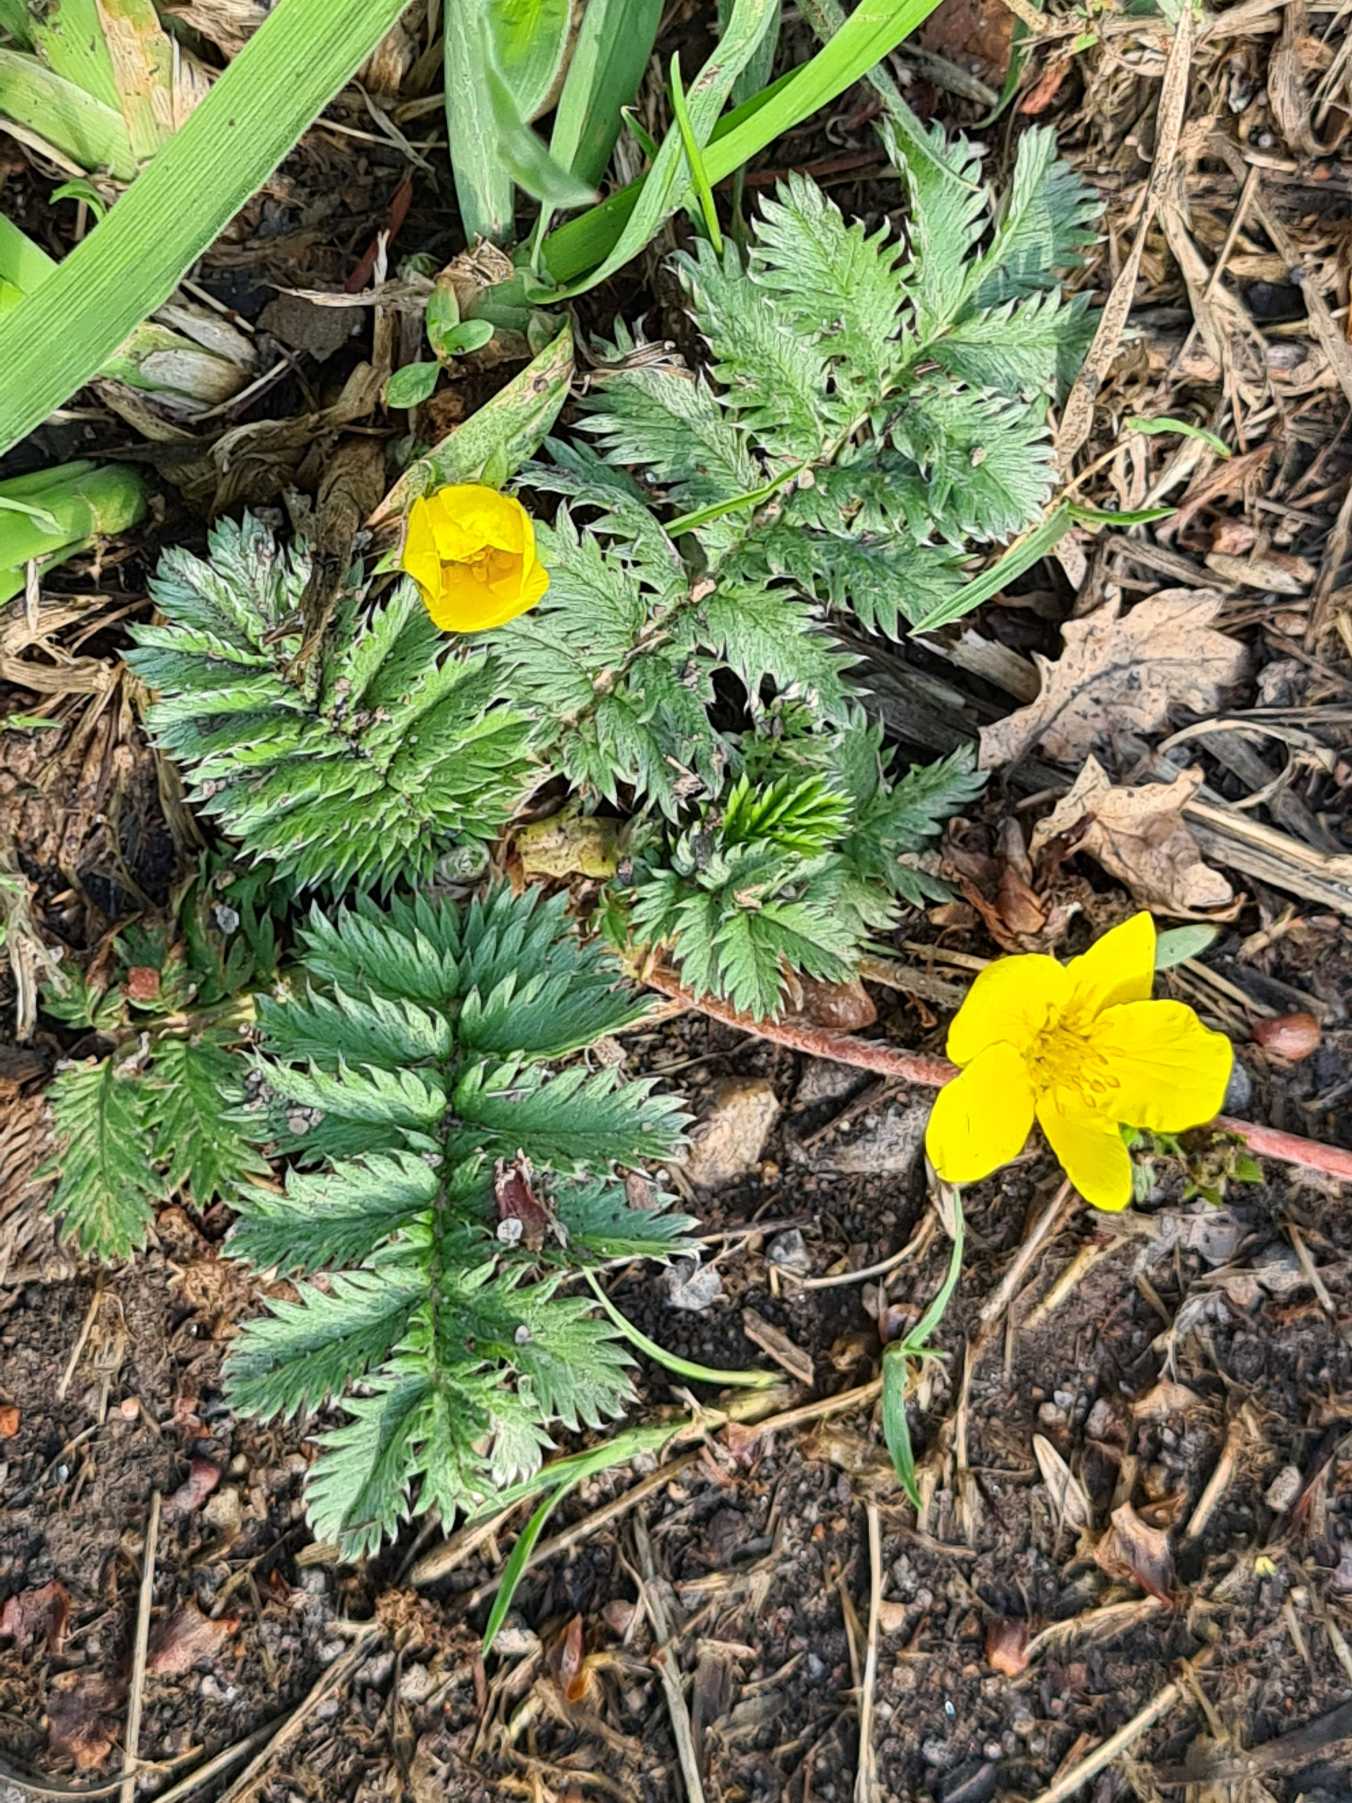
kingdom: Plantae
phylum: Tracheophyta
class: Magnoliopsida
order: Rosales
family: Rosaceae
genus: Argentina
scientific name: Argentina anserina
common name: Gåsepotentil
